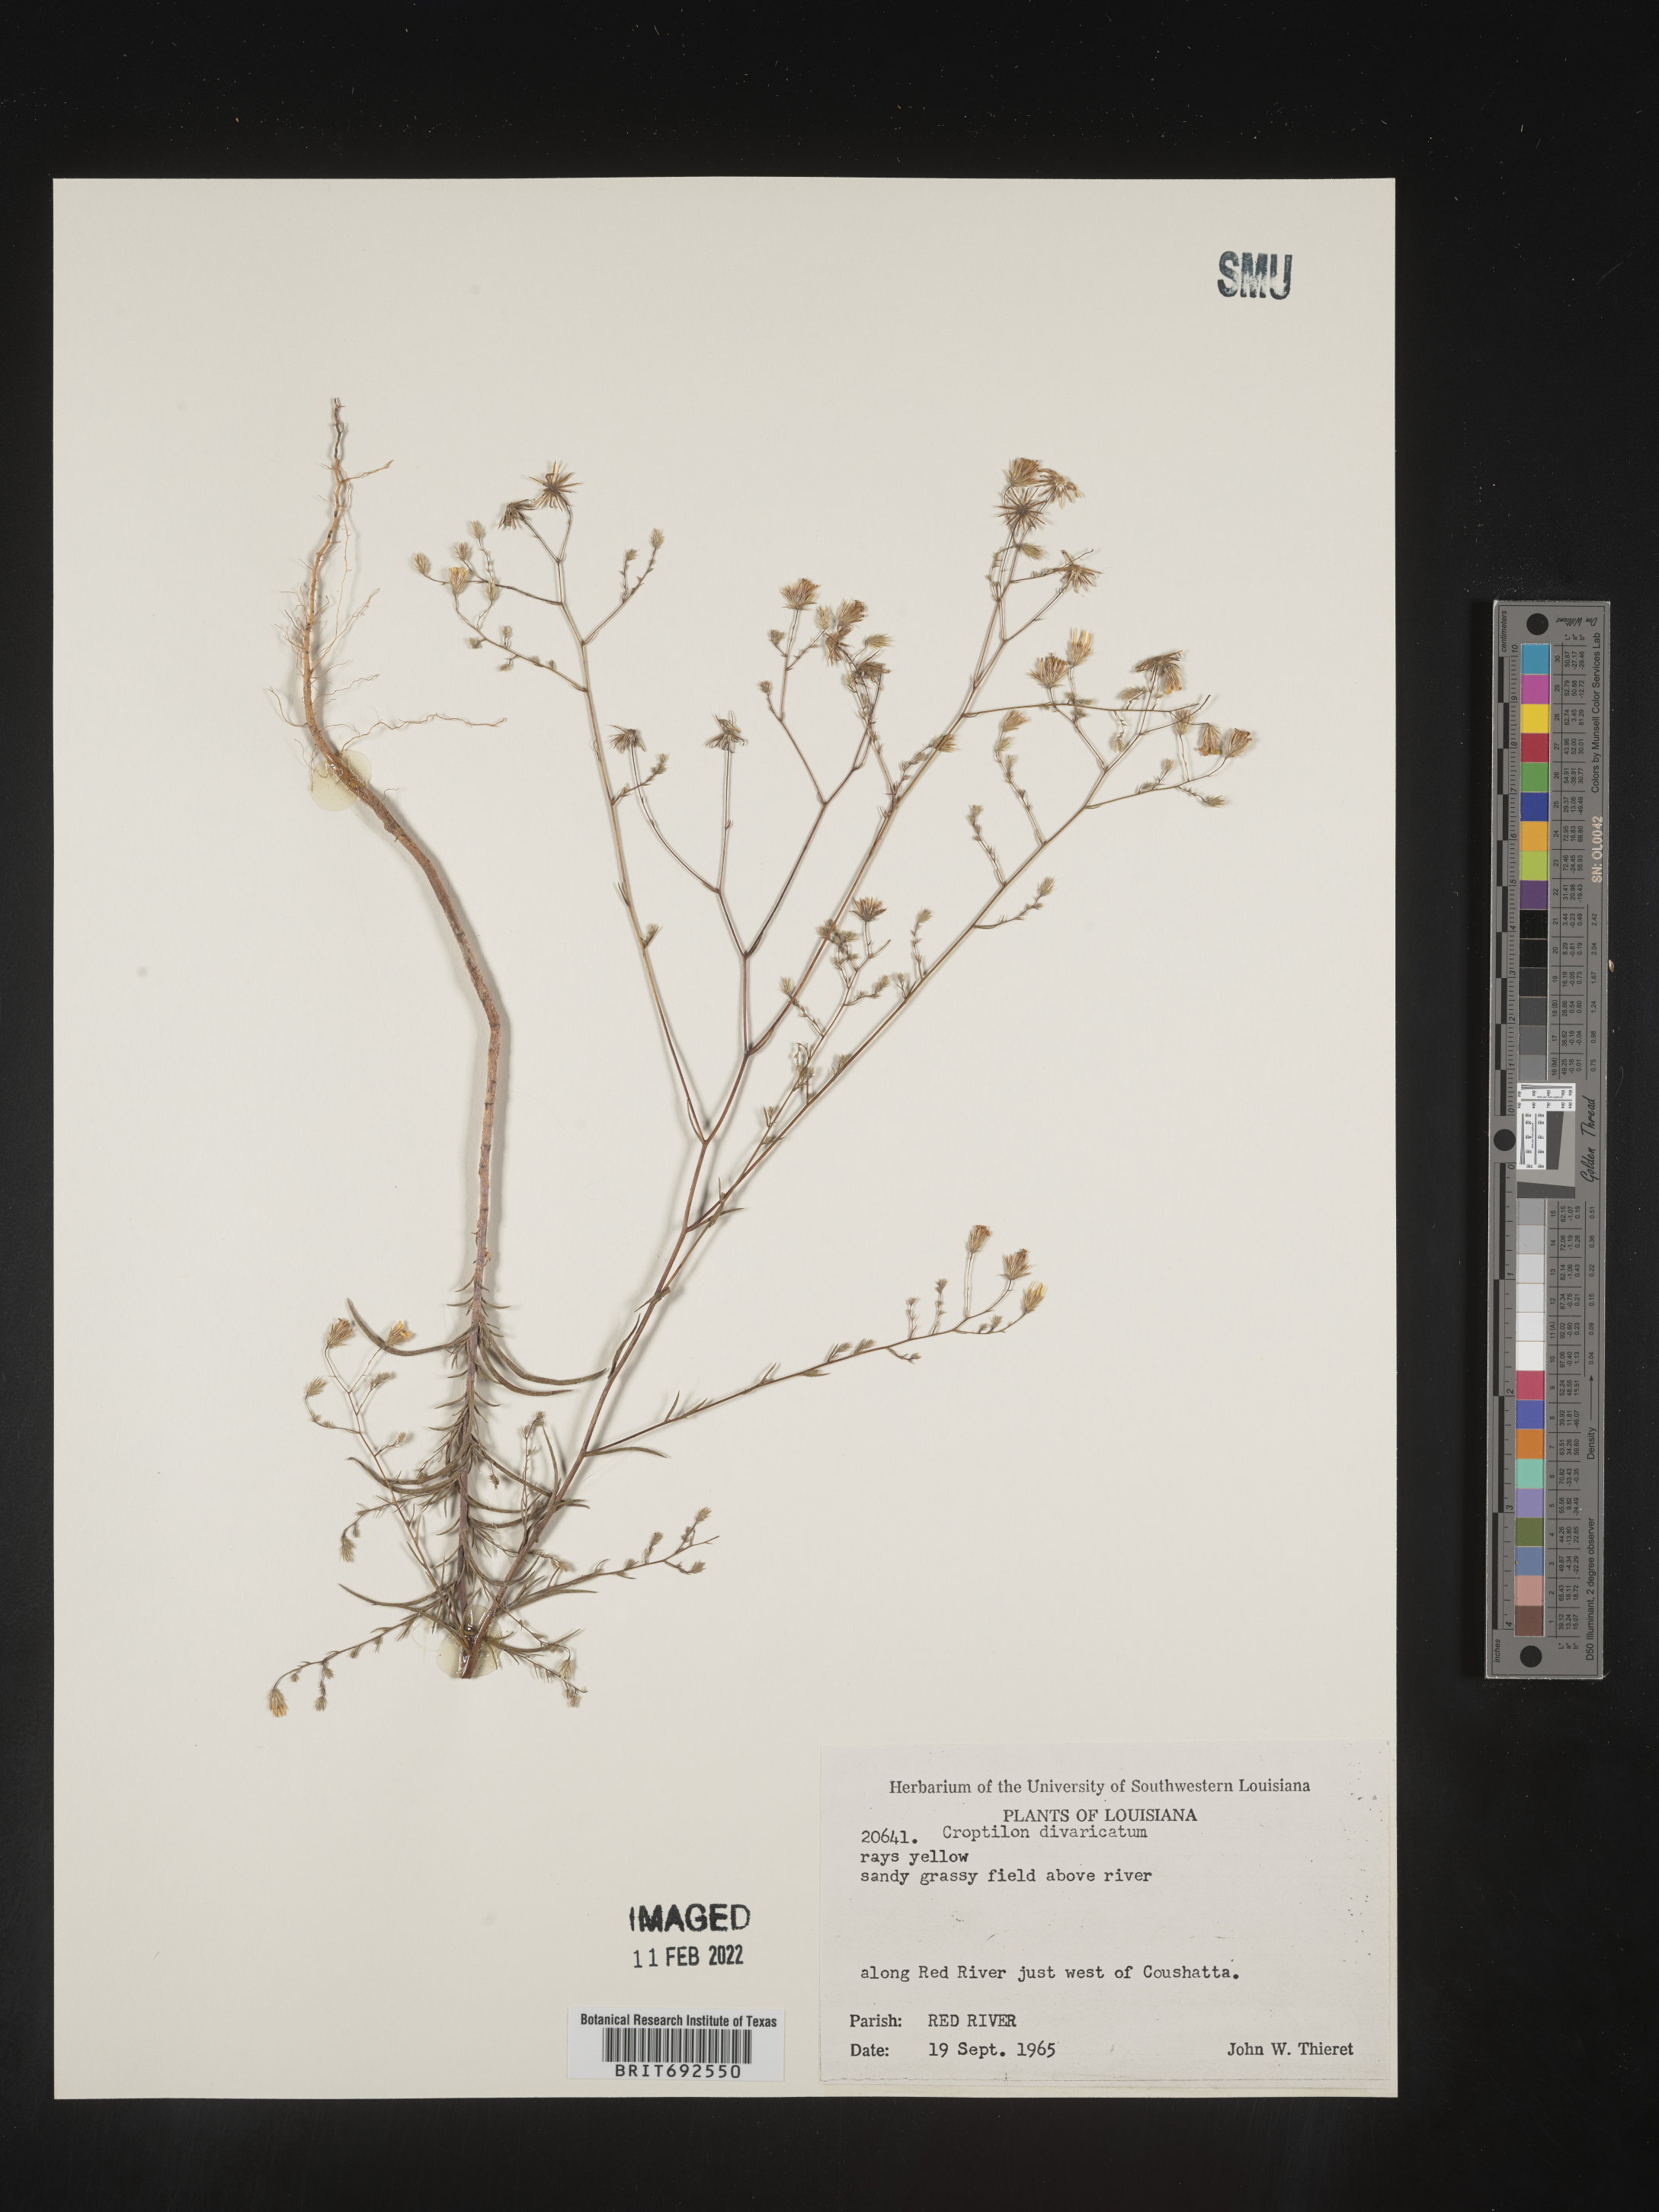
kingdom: Plantae
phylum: Tracheophyta
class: Magnoliopsida
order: Asterales
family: Asteraceae
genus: Croptilon
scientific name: Croptilon divaricatum
